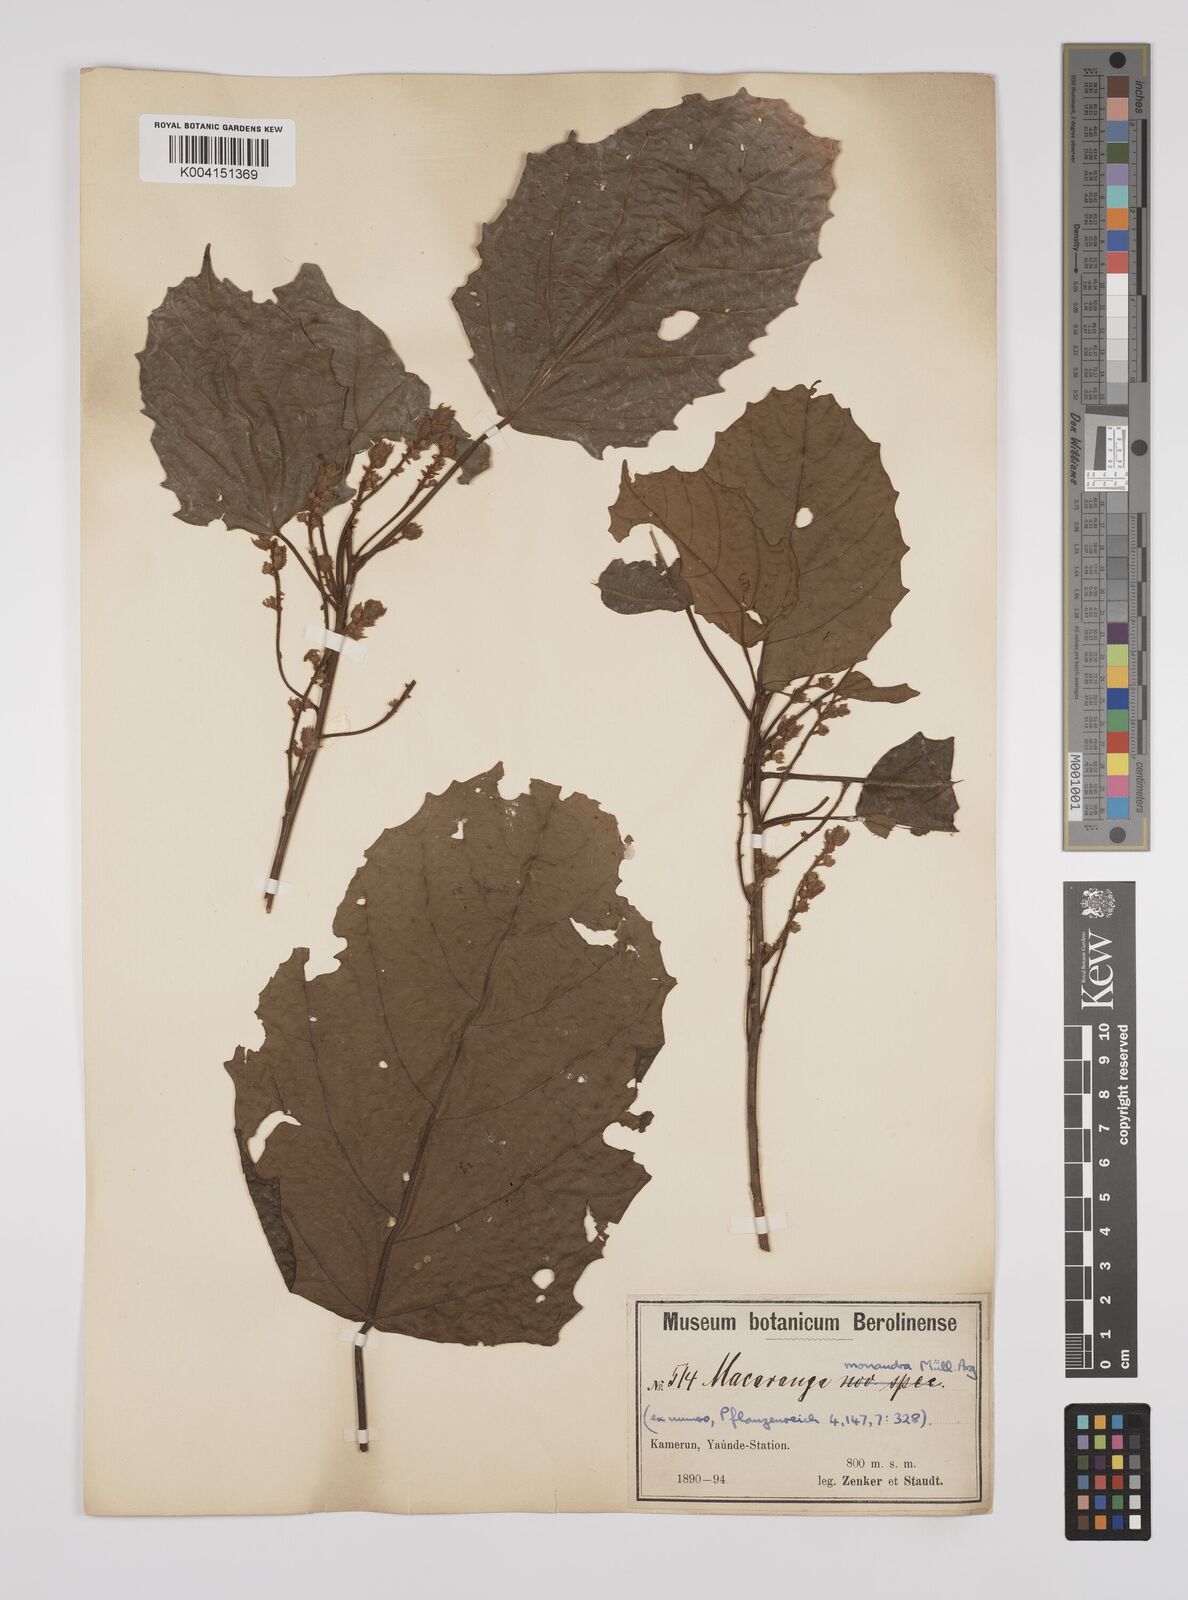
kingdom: Plantae
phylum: Tracheophyta
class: Magnoliopsida
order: Malpighiales
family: Euphorbiaceae
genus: Macaranga
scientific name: Macaranga monandra
